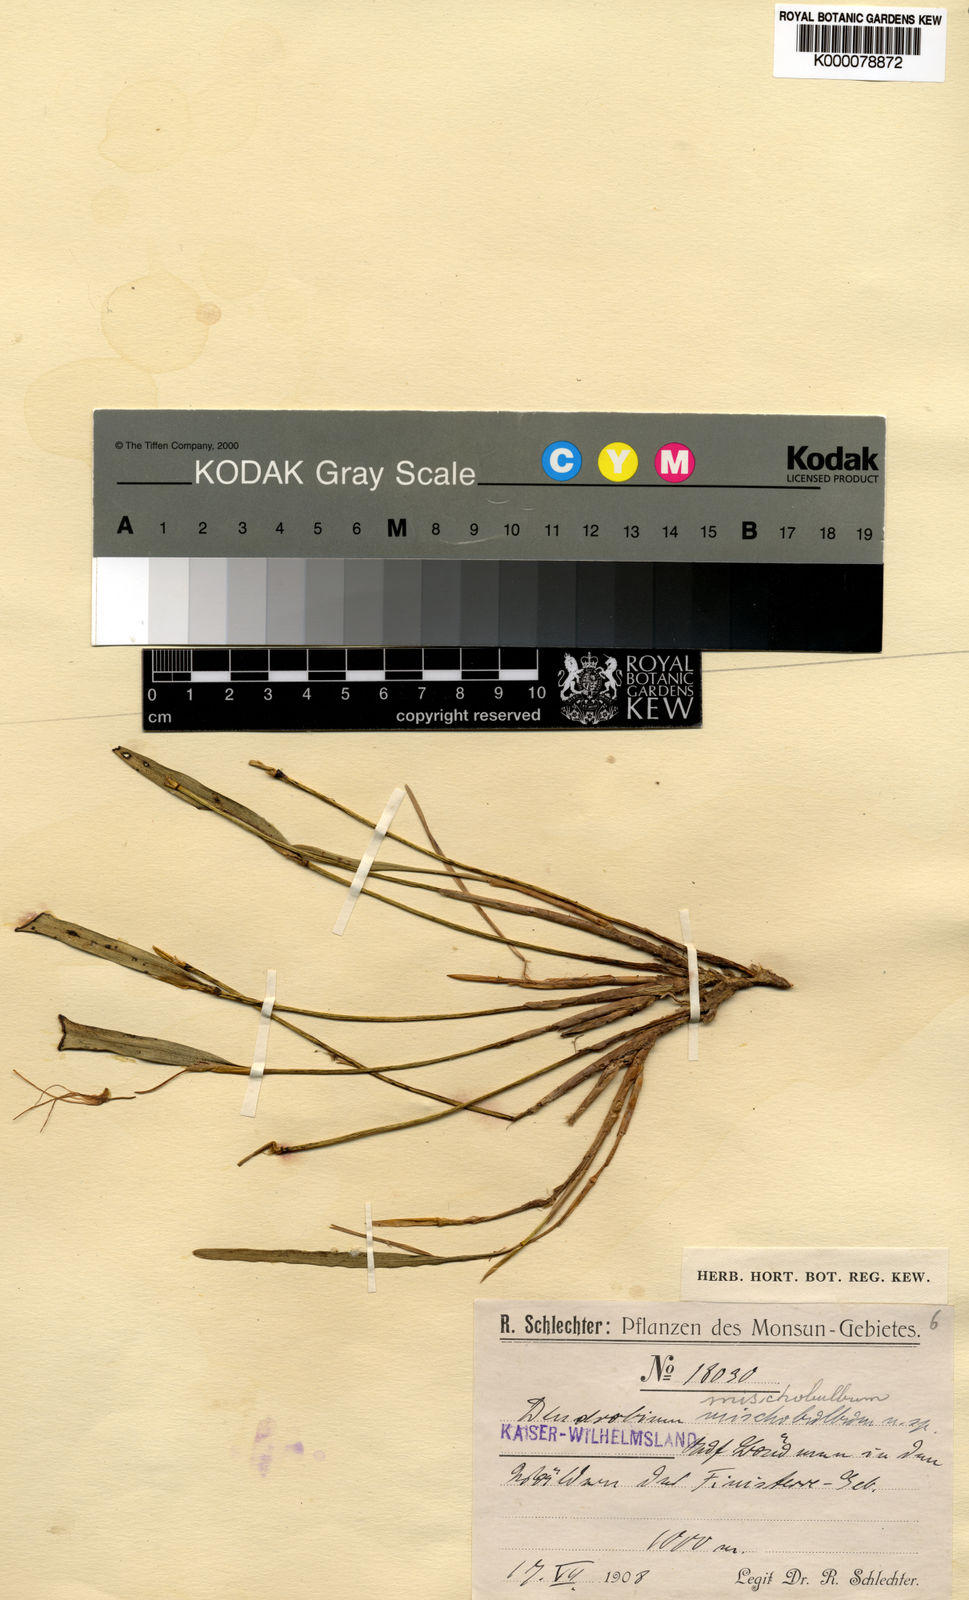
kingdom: Plantae
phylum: Tracheophyta
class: Liliopsida
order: Asparagales
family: Orchidaceae
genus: Dendrobium
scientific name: Dendrobium mischobulbum
